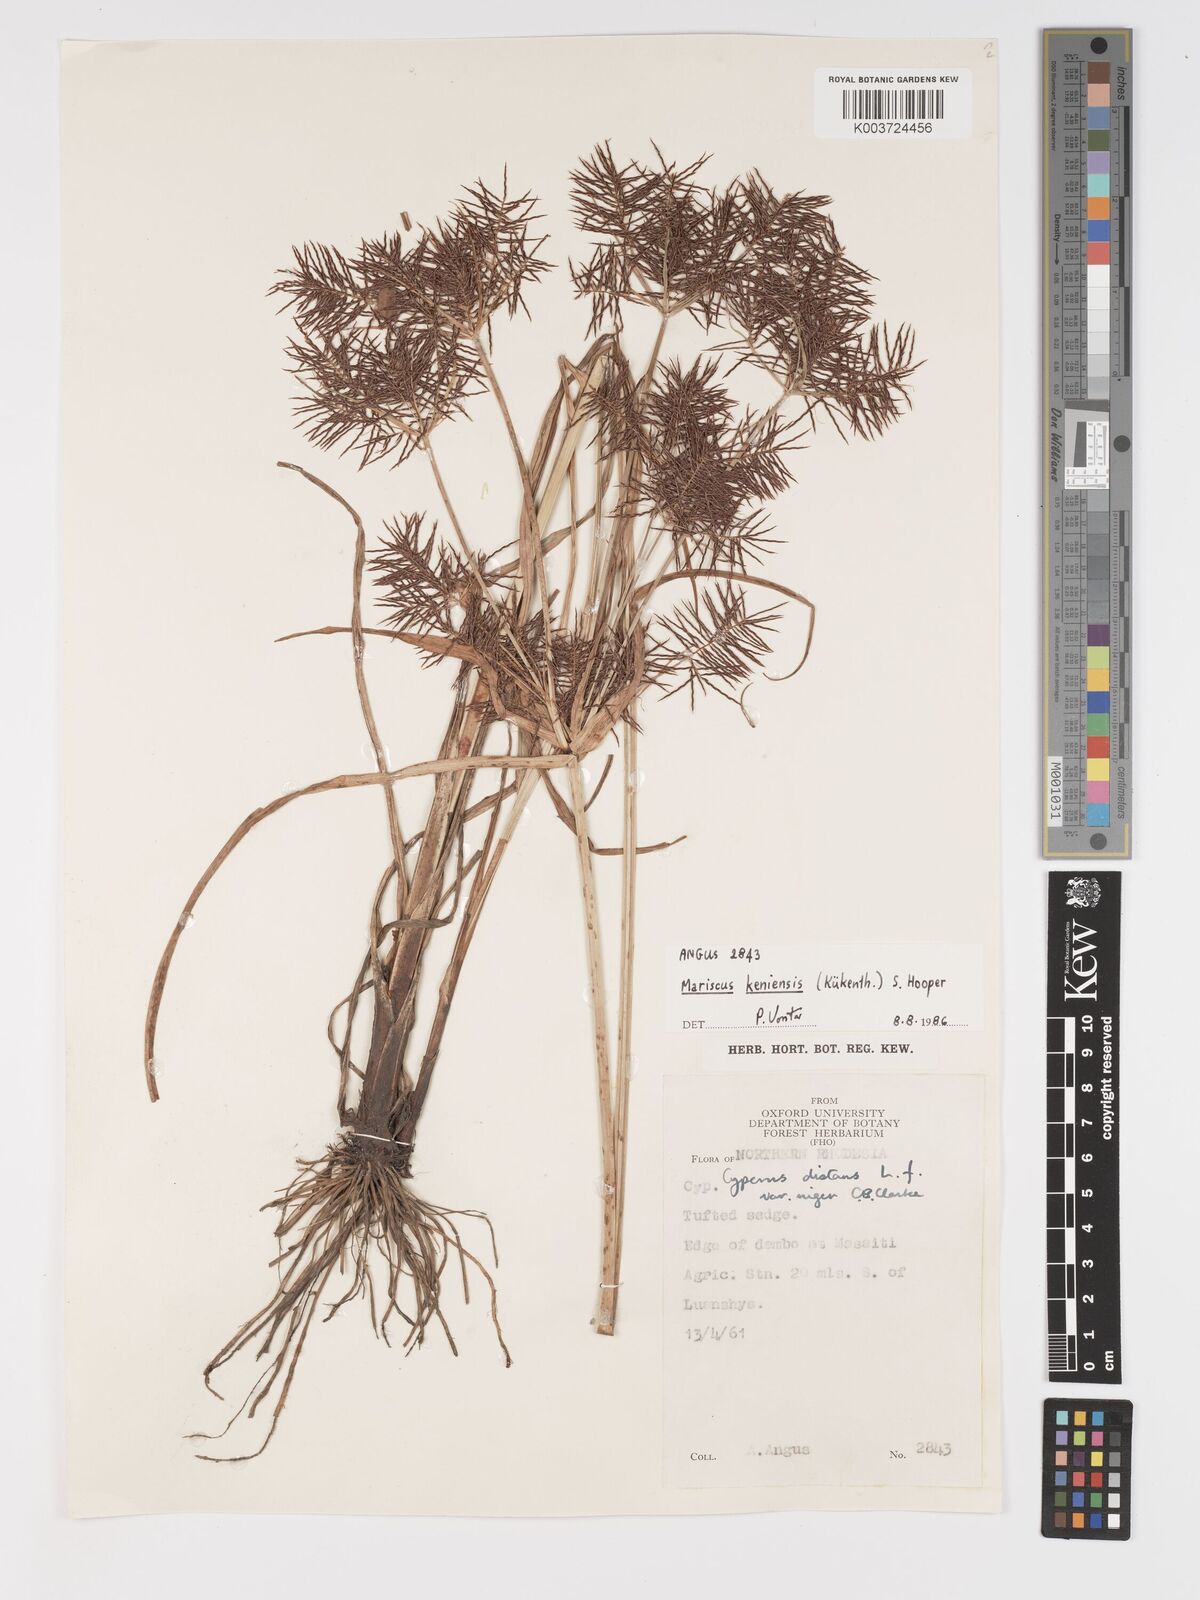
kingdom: Plantae
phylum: Tracheophyta
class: Liliopsida
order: Poales
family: Cyperaceae
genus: Cyperus
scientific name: Cyperus
